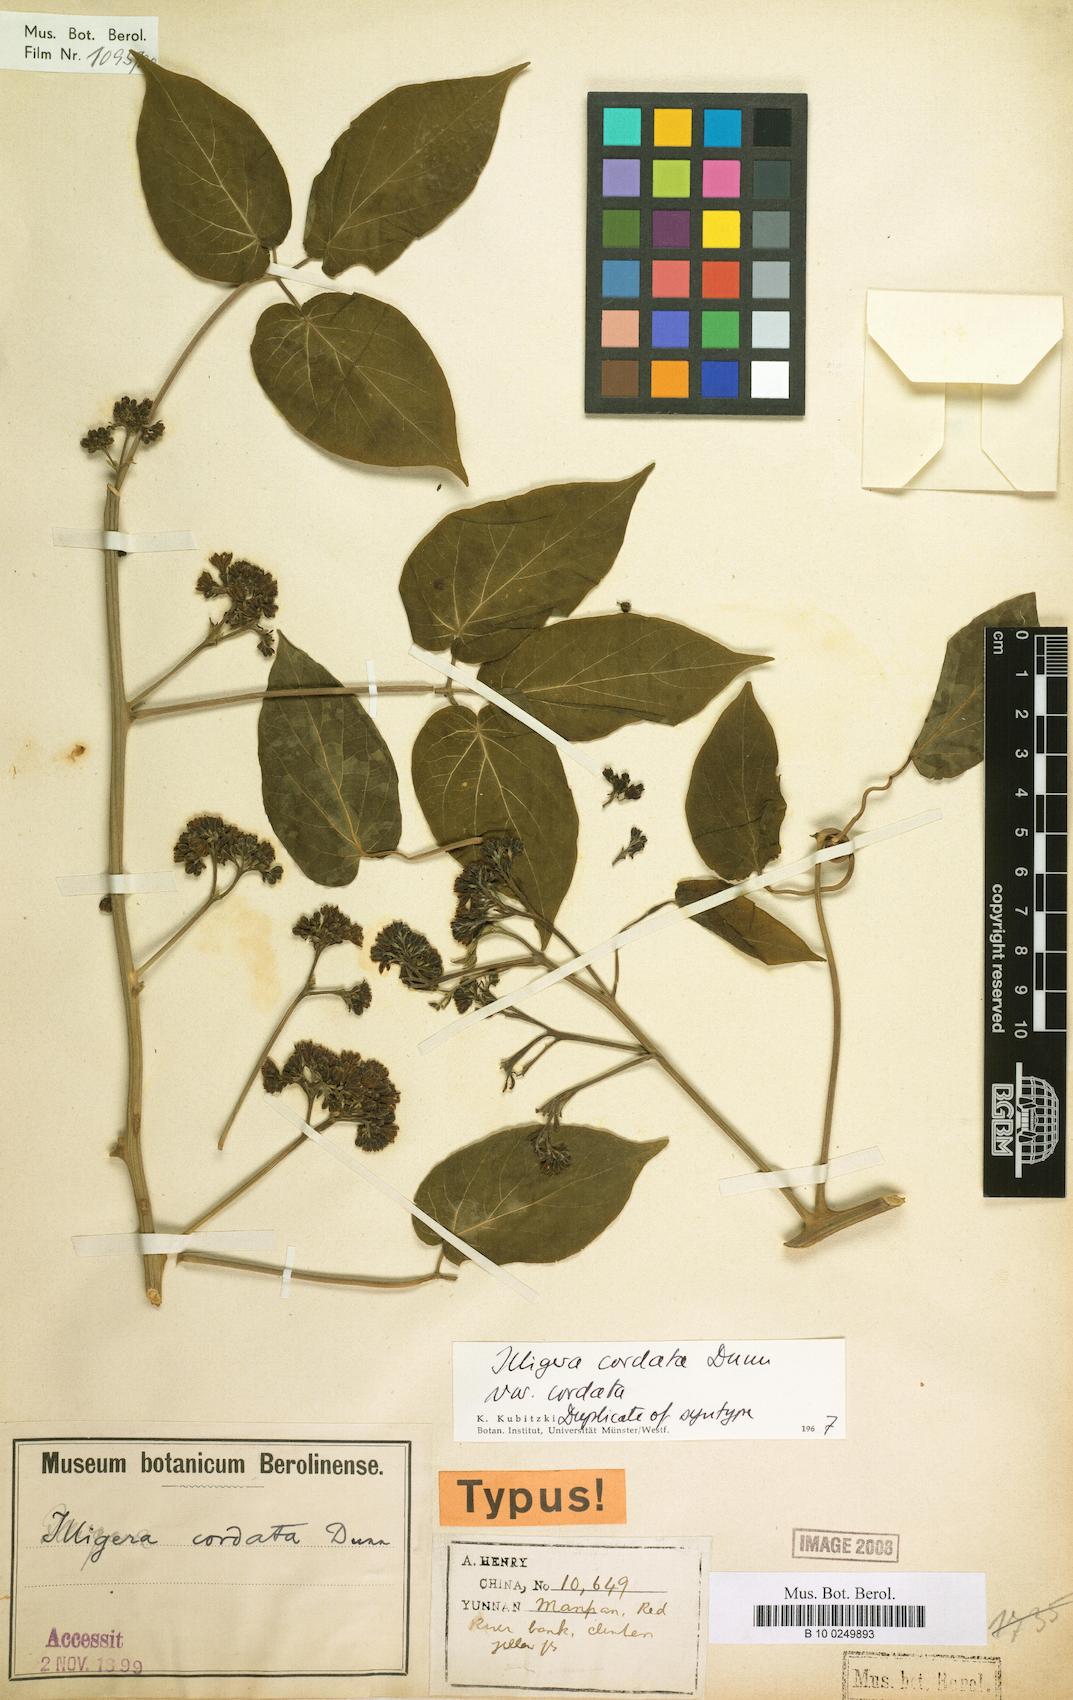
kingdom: Plantae
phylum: Tracheophyta
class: Magnoliopsida
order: Laurales
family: Hernandiaceae
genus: Illigera
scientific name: Illigera cordata
